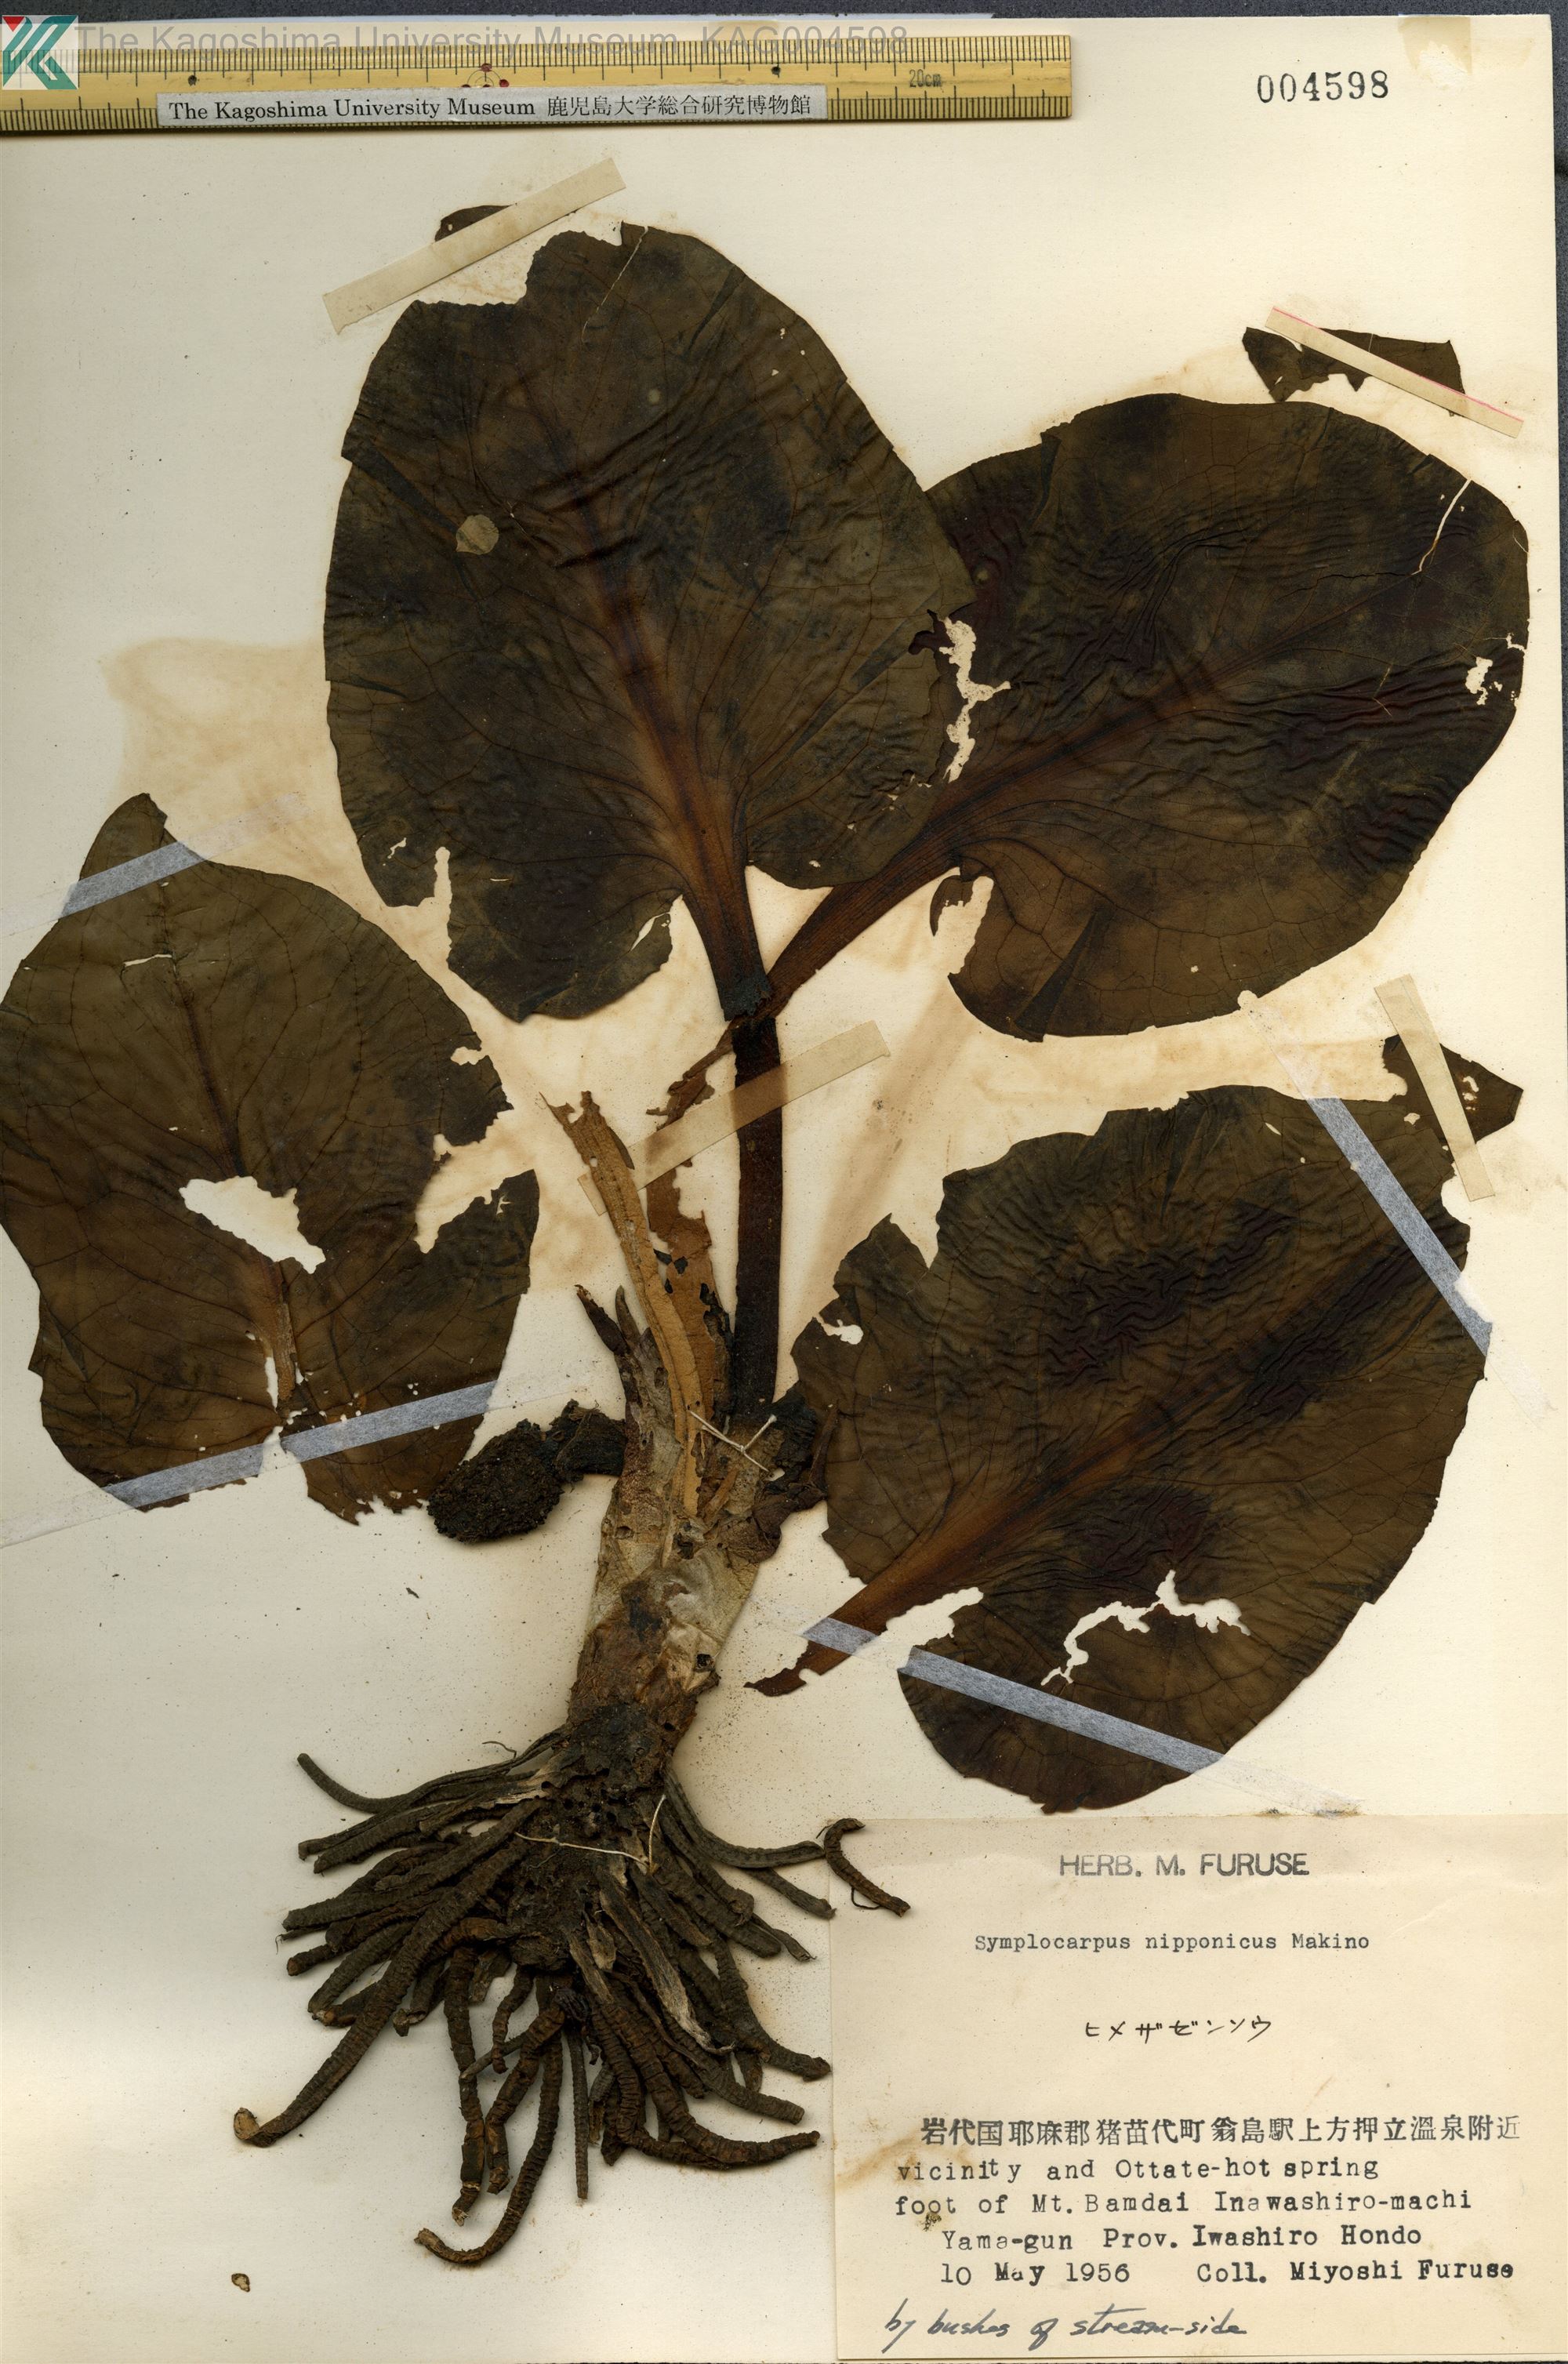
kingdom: Plantae
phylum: Tracheophyta
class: Liliopsida
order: Alismatales
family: Araceae
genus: Lysichiton
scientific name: Lysichiton
